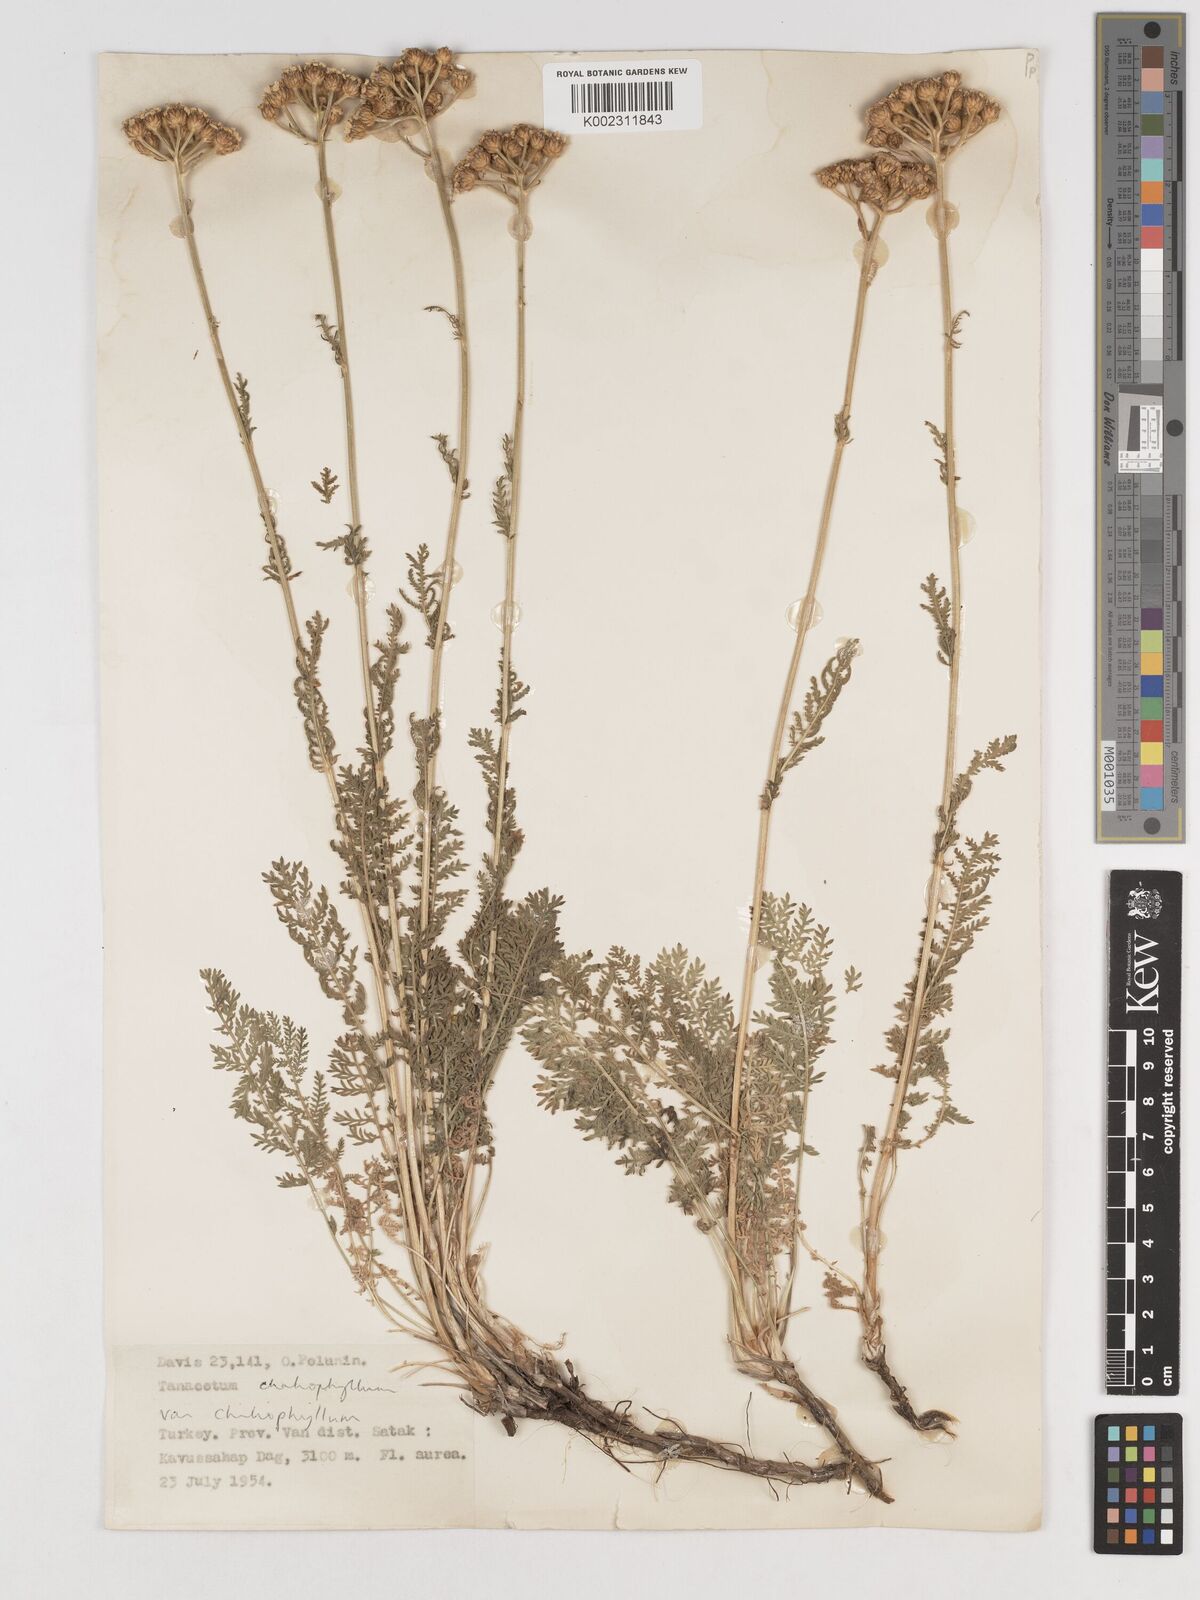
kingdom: Plantae
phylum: Tracheophyta
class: Magnoliopsida
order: Asterales
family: Asteraceae
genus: Tanacetum
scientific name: Tanacetum aureum
